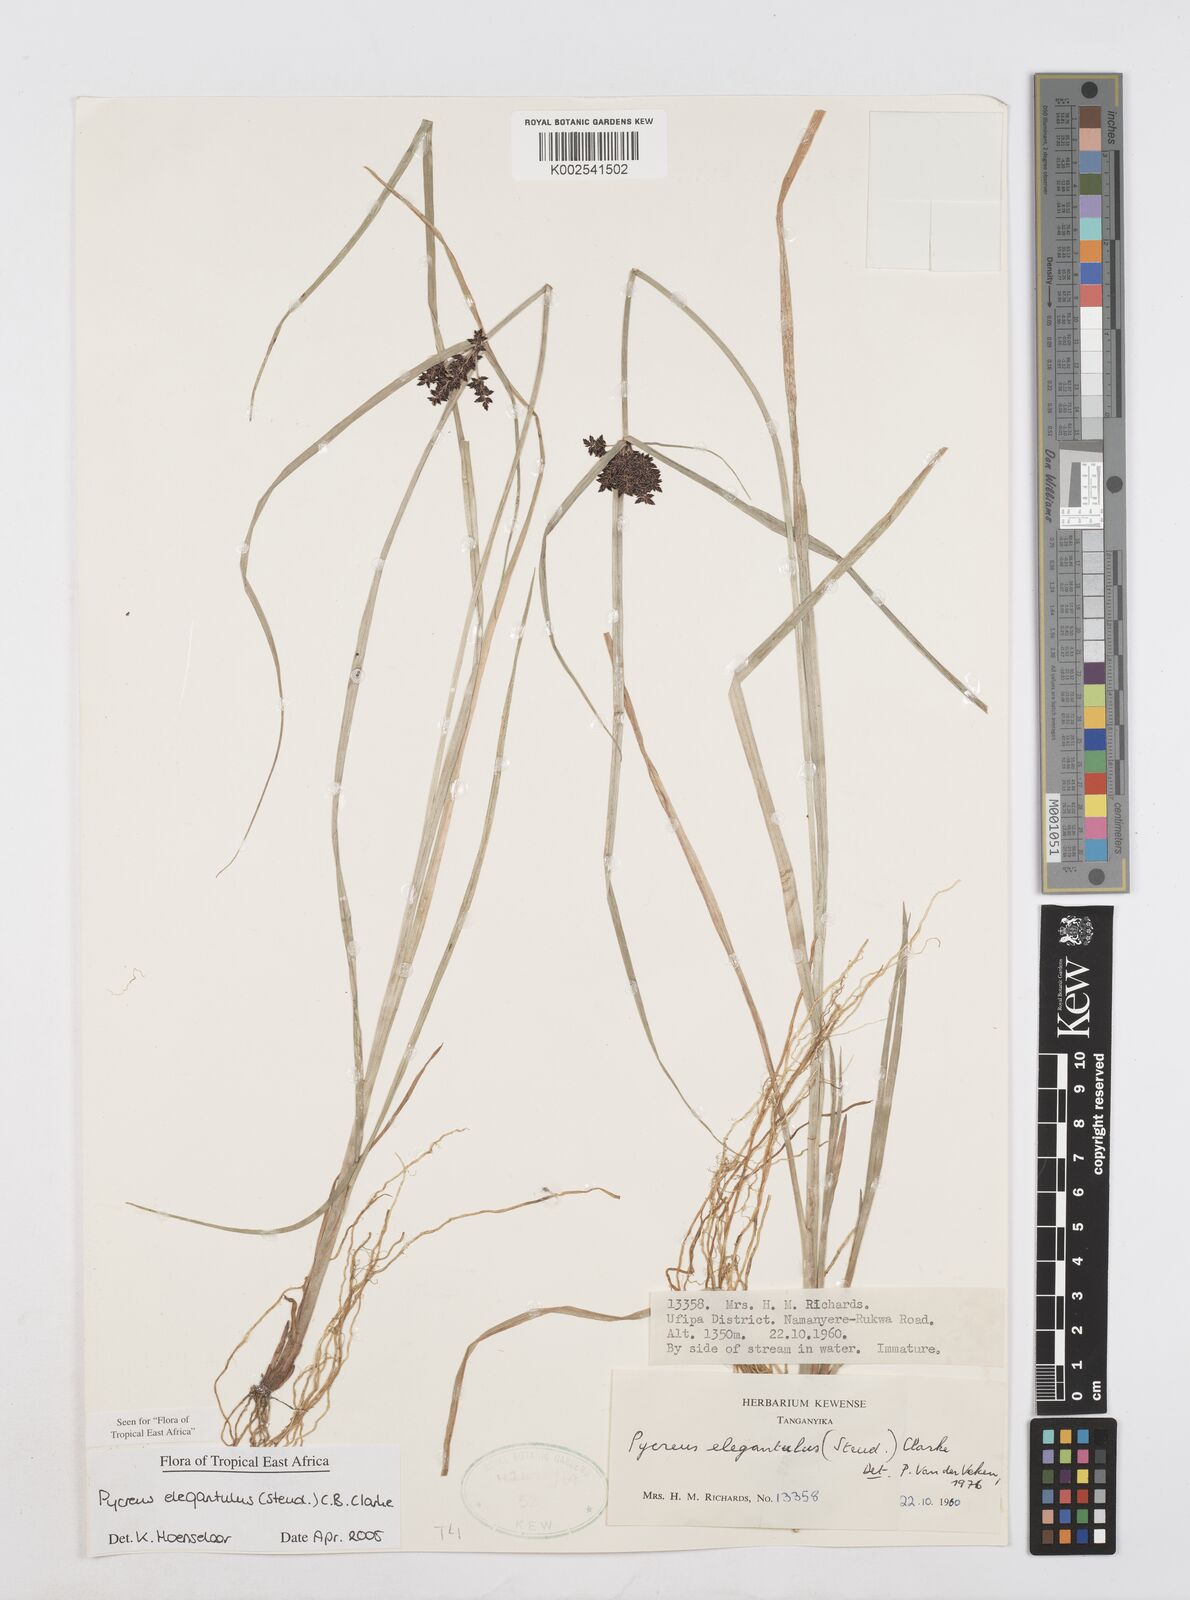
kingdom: Plantae
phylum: Tracheophyta
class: Liliopsida
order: Poales
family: Cyperaceae
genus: Cyperus
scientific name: Cyperus elegantulus
